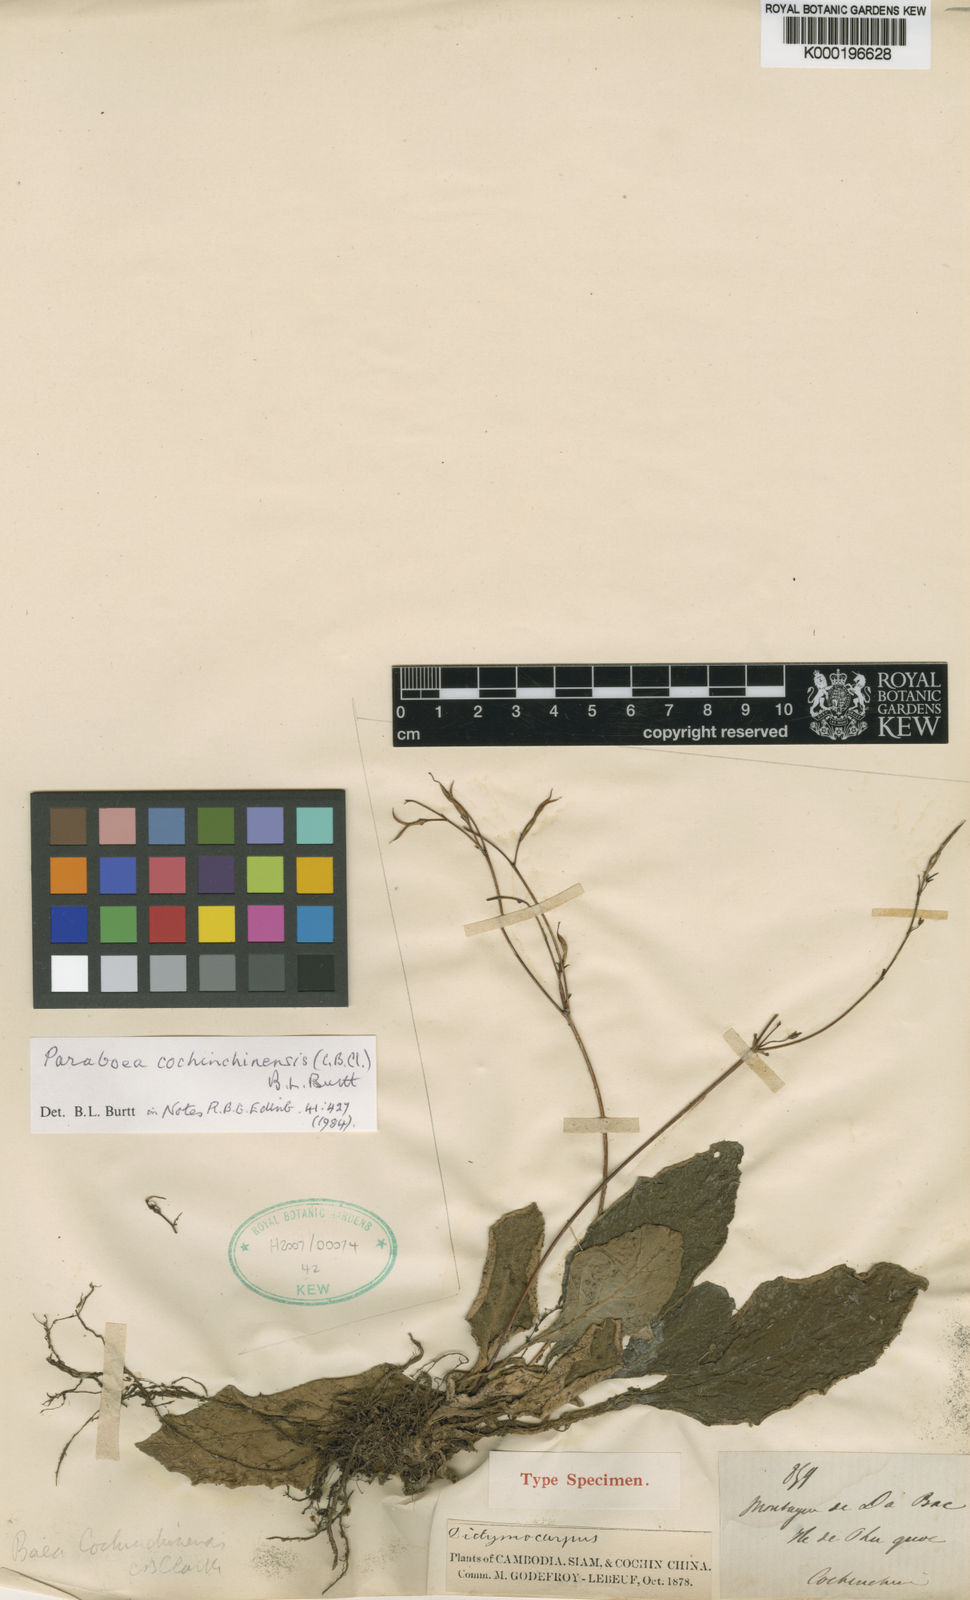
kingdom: Plantae
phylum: Tracheophyta
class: Magnoliopsida
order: Lamiales
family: Gesneriaceae
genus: Paraboea
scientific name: Paraboea cochinchinensis
